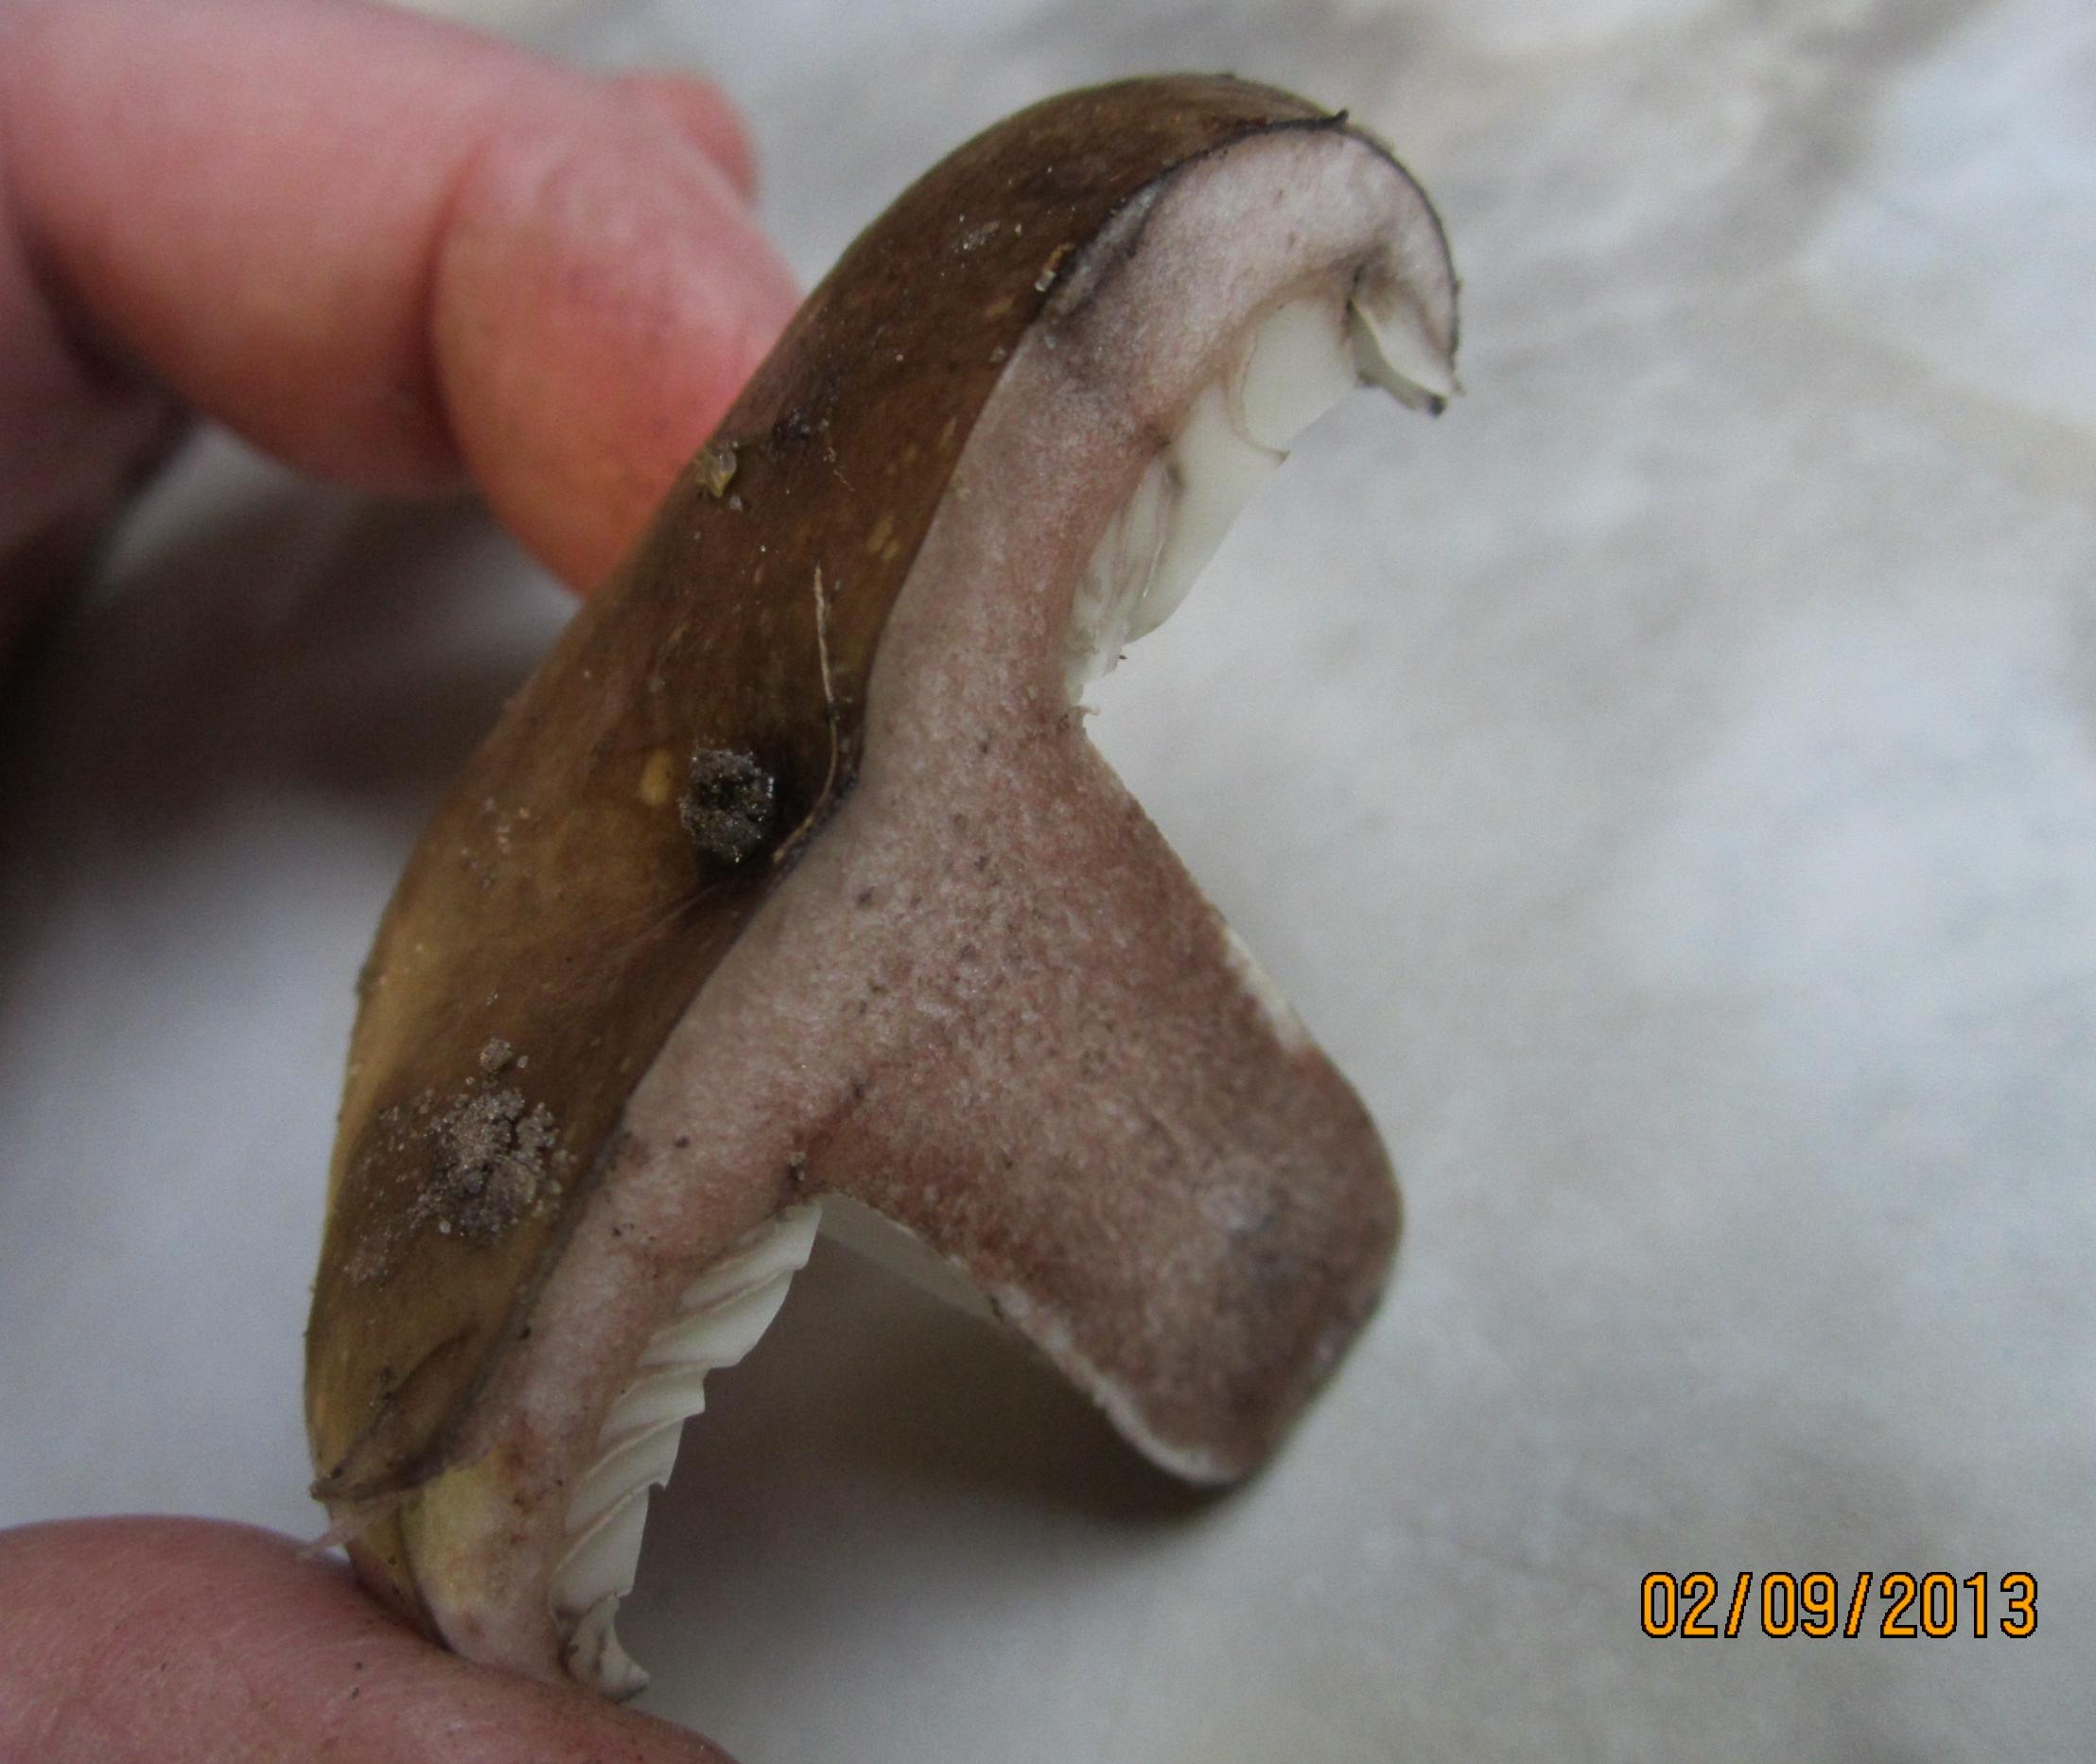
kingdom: Fungi
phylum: Basidiomycota
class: Agaricomycetes
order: Russulales
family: Russulaceae
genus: Russula
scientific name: Russula densifolia
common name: tætbladet skørhat
